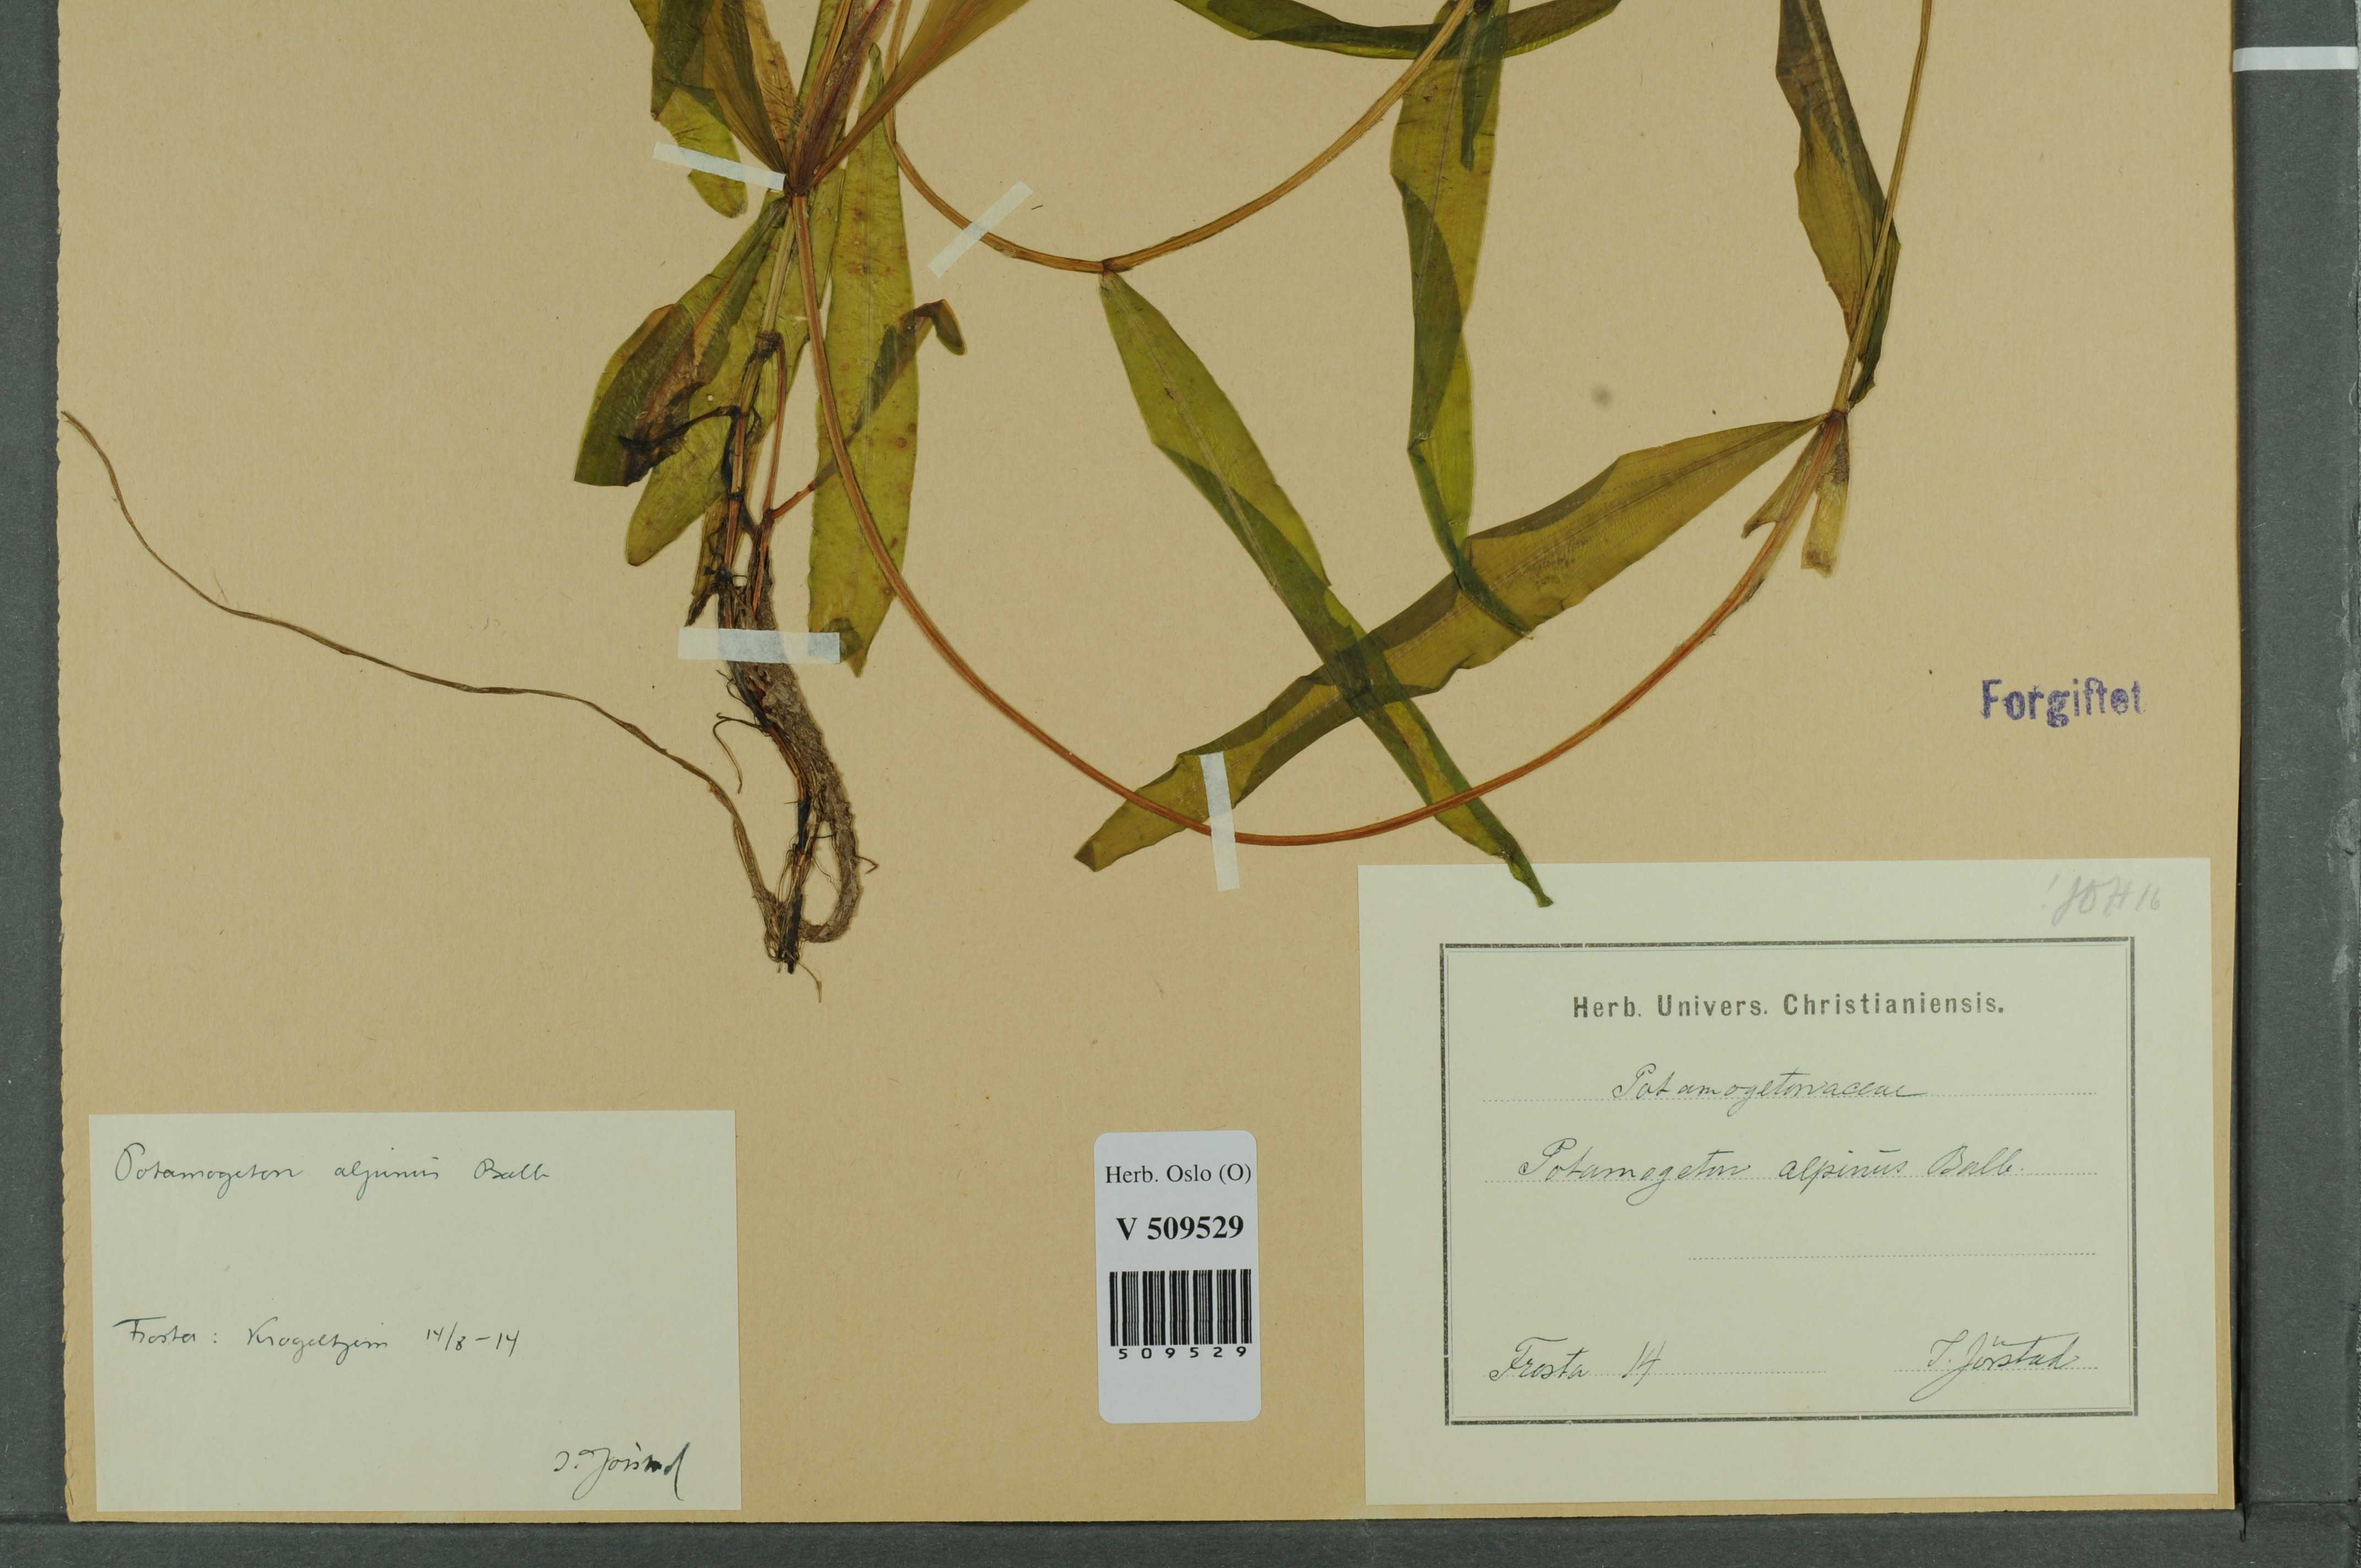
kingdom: Plantae
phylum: Tracheophyta
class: Liliopsida
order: Alismatales
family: Potamogetonaceae
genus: Potamogeton
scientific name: Potamogeton alpinus
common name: Red pondweed
